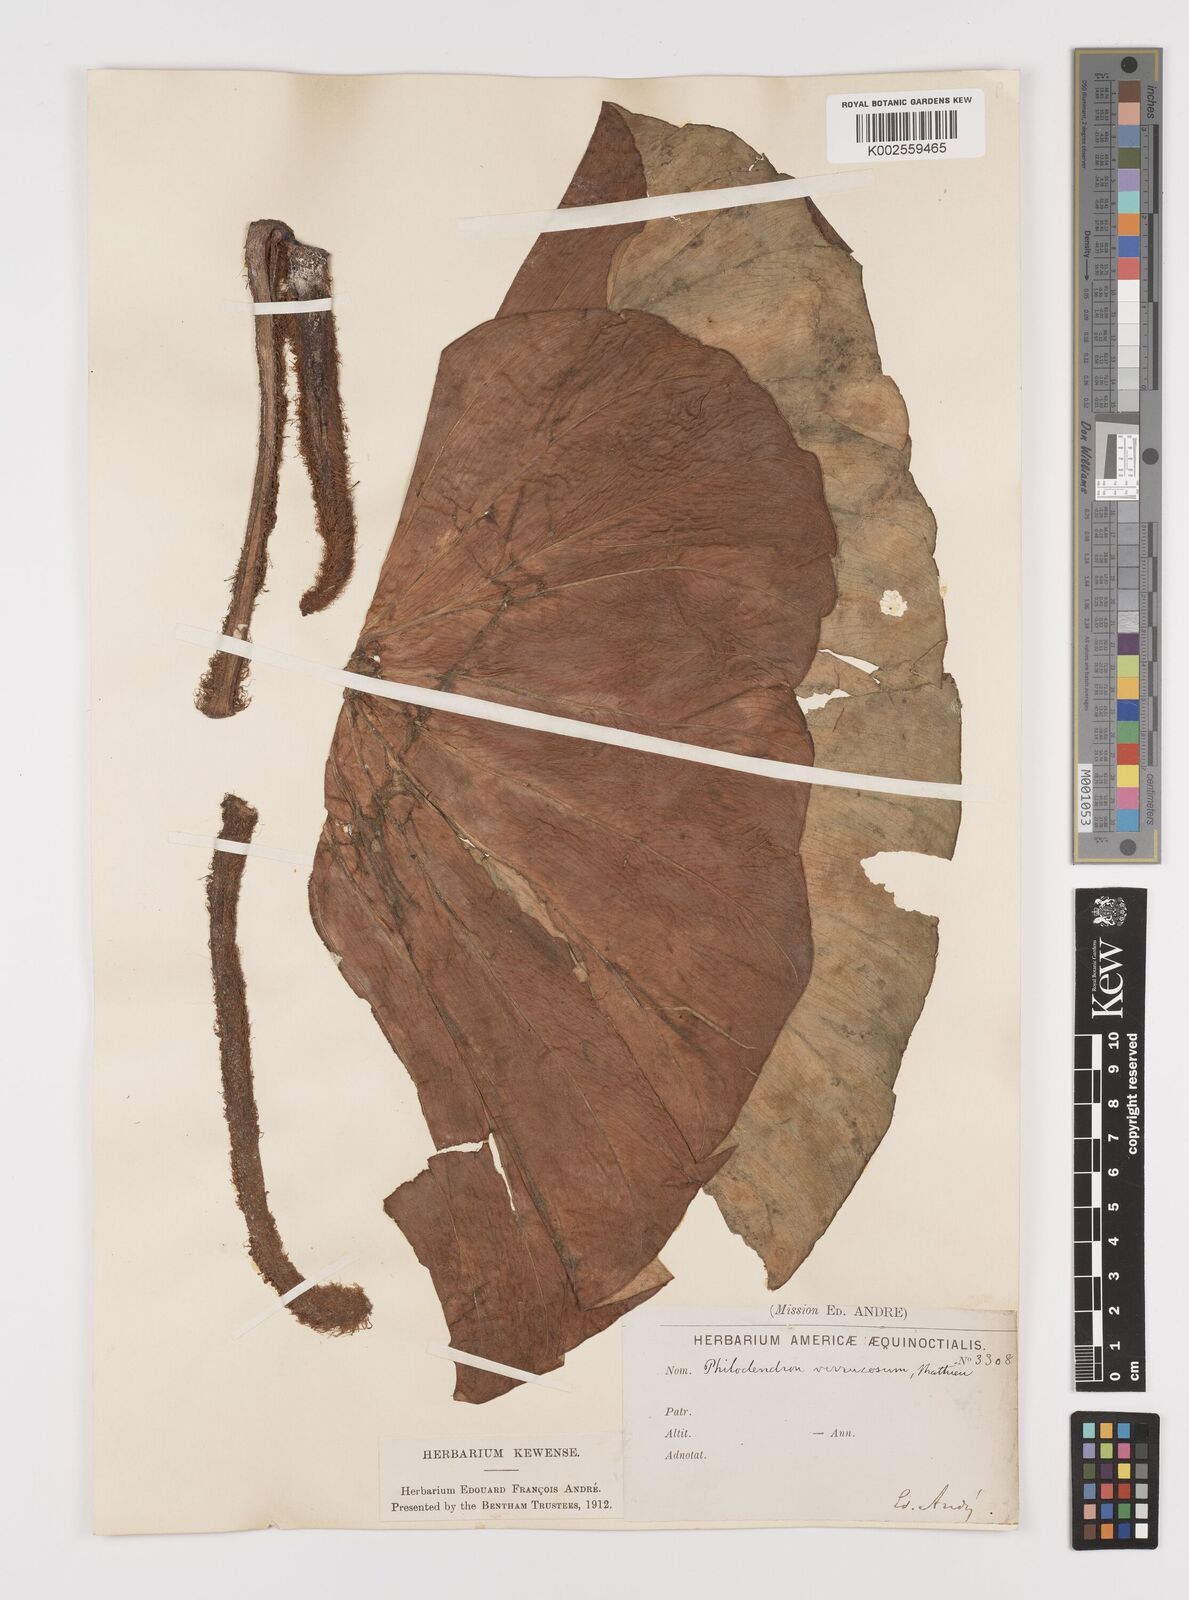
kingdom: Plantae
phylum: Tracheophyta
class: Liliopsida
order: Alismatales
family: Araceae
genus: Philodendron
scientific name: Philodendron verrucosum
